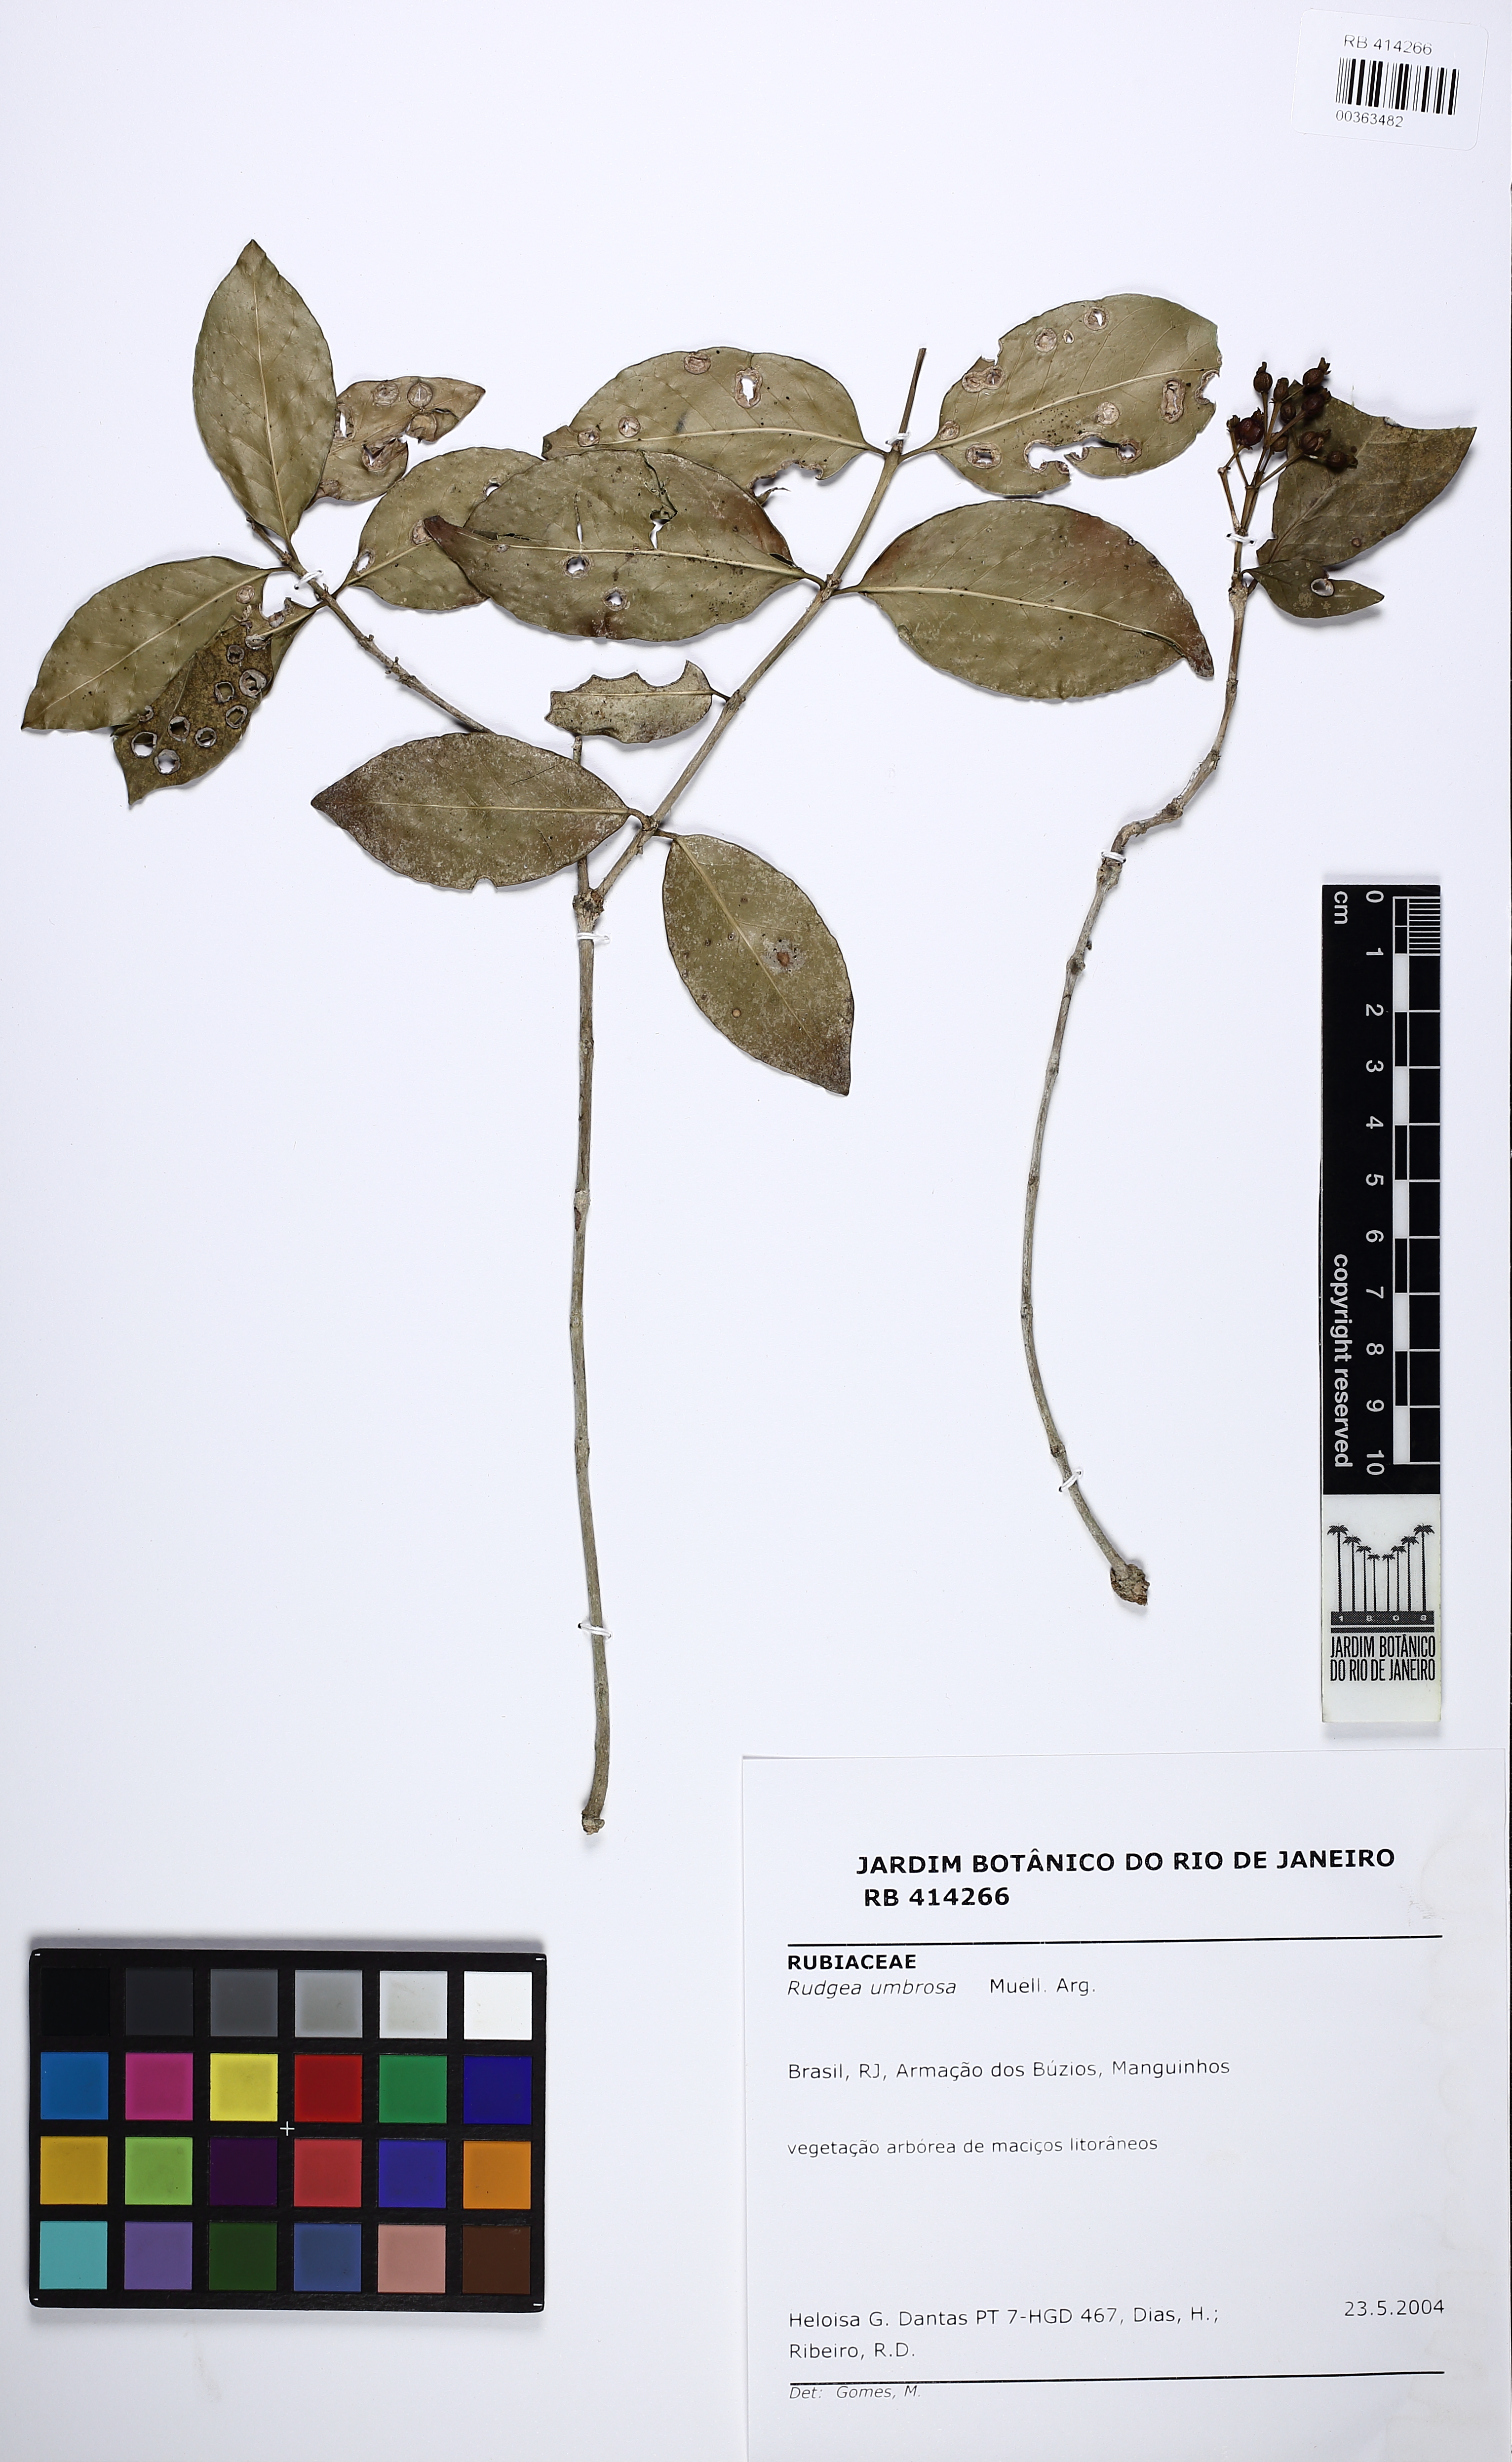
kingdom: Plantae
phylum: Tracheophyta
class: Magnoliopsida
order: Gentianales
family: Rubiaceae
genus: Rudgea
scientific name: Rudgea umbrosa
